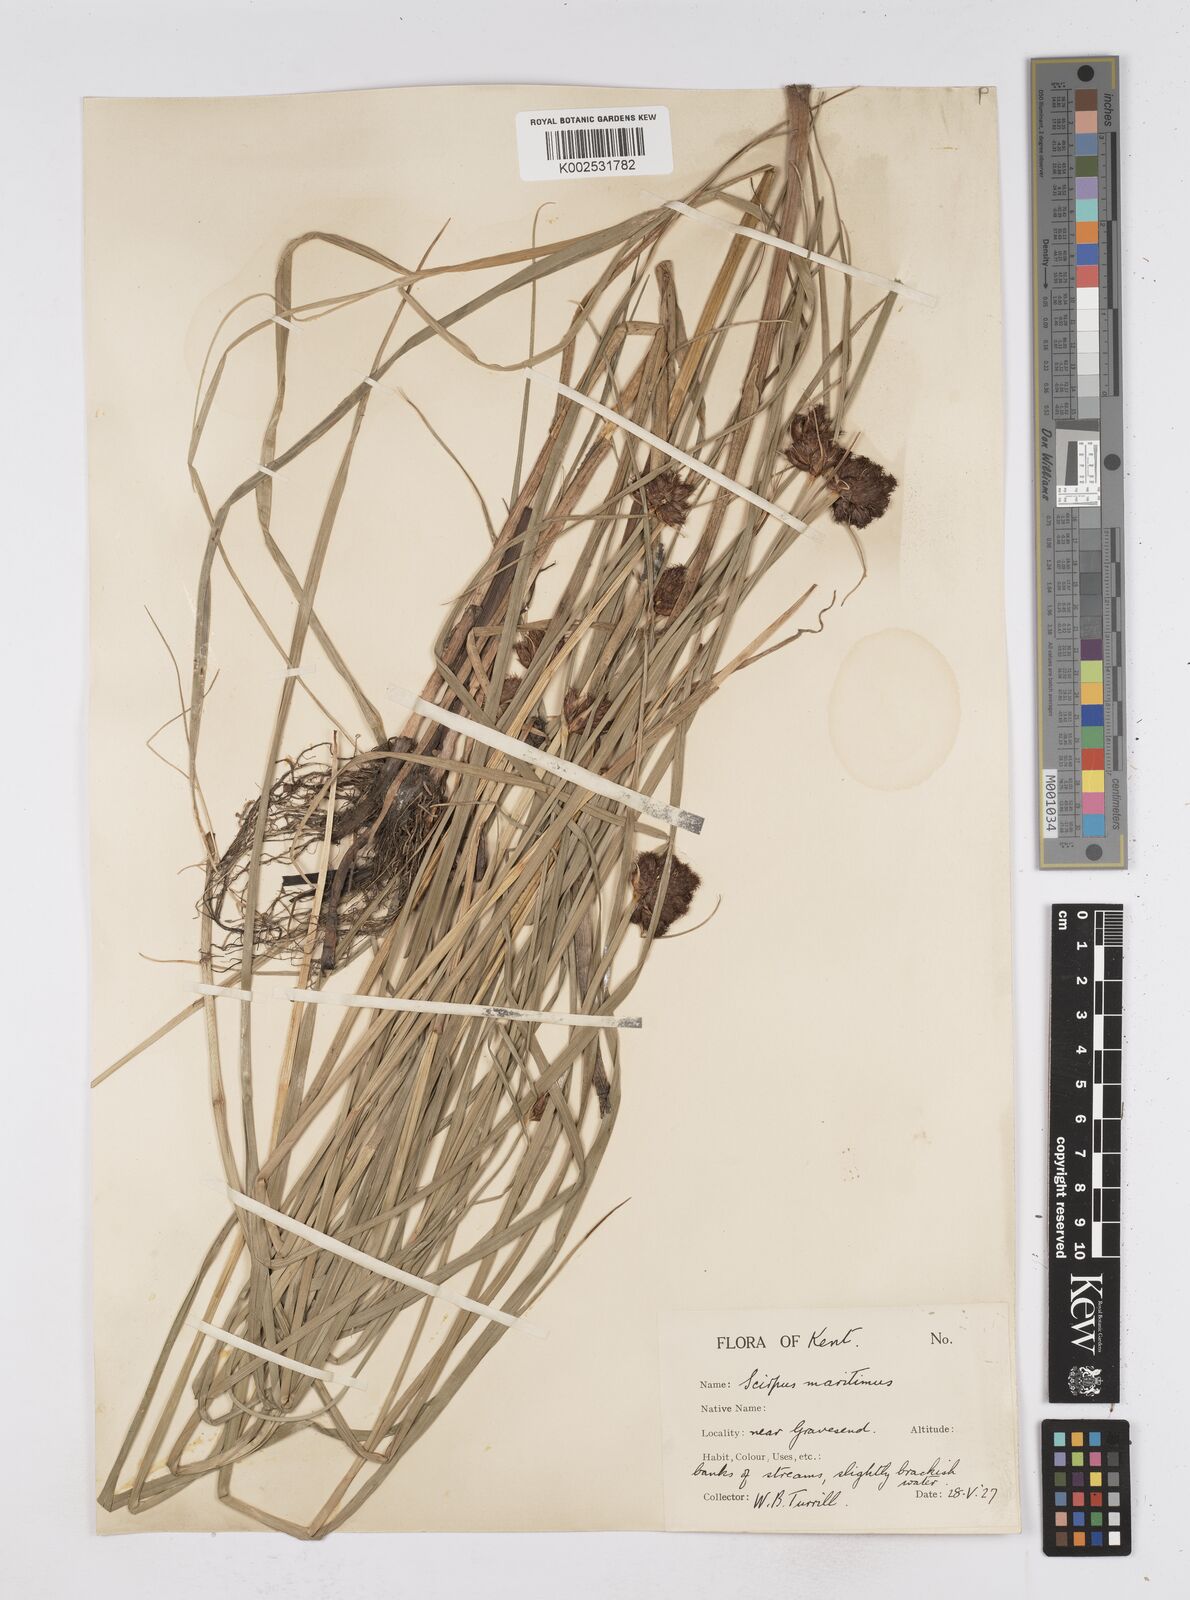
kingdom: Plantae
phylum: Tracheophyta
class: Liliopsida
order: Poales
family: Cyperaceae
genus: Bolboschoenus
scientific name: Bolboschoenus maritimus
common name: Sea club-rush
